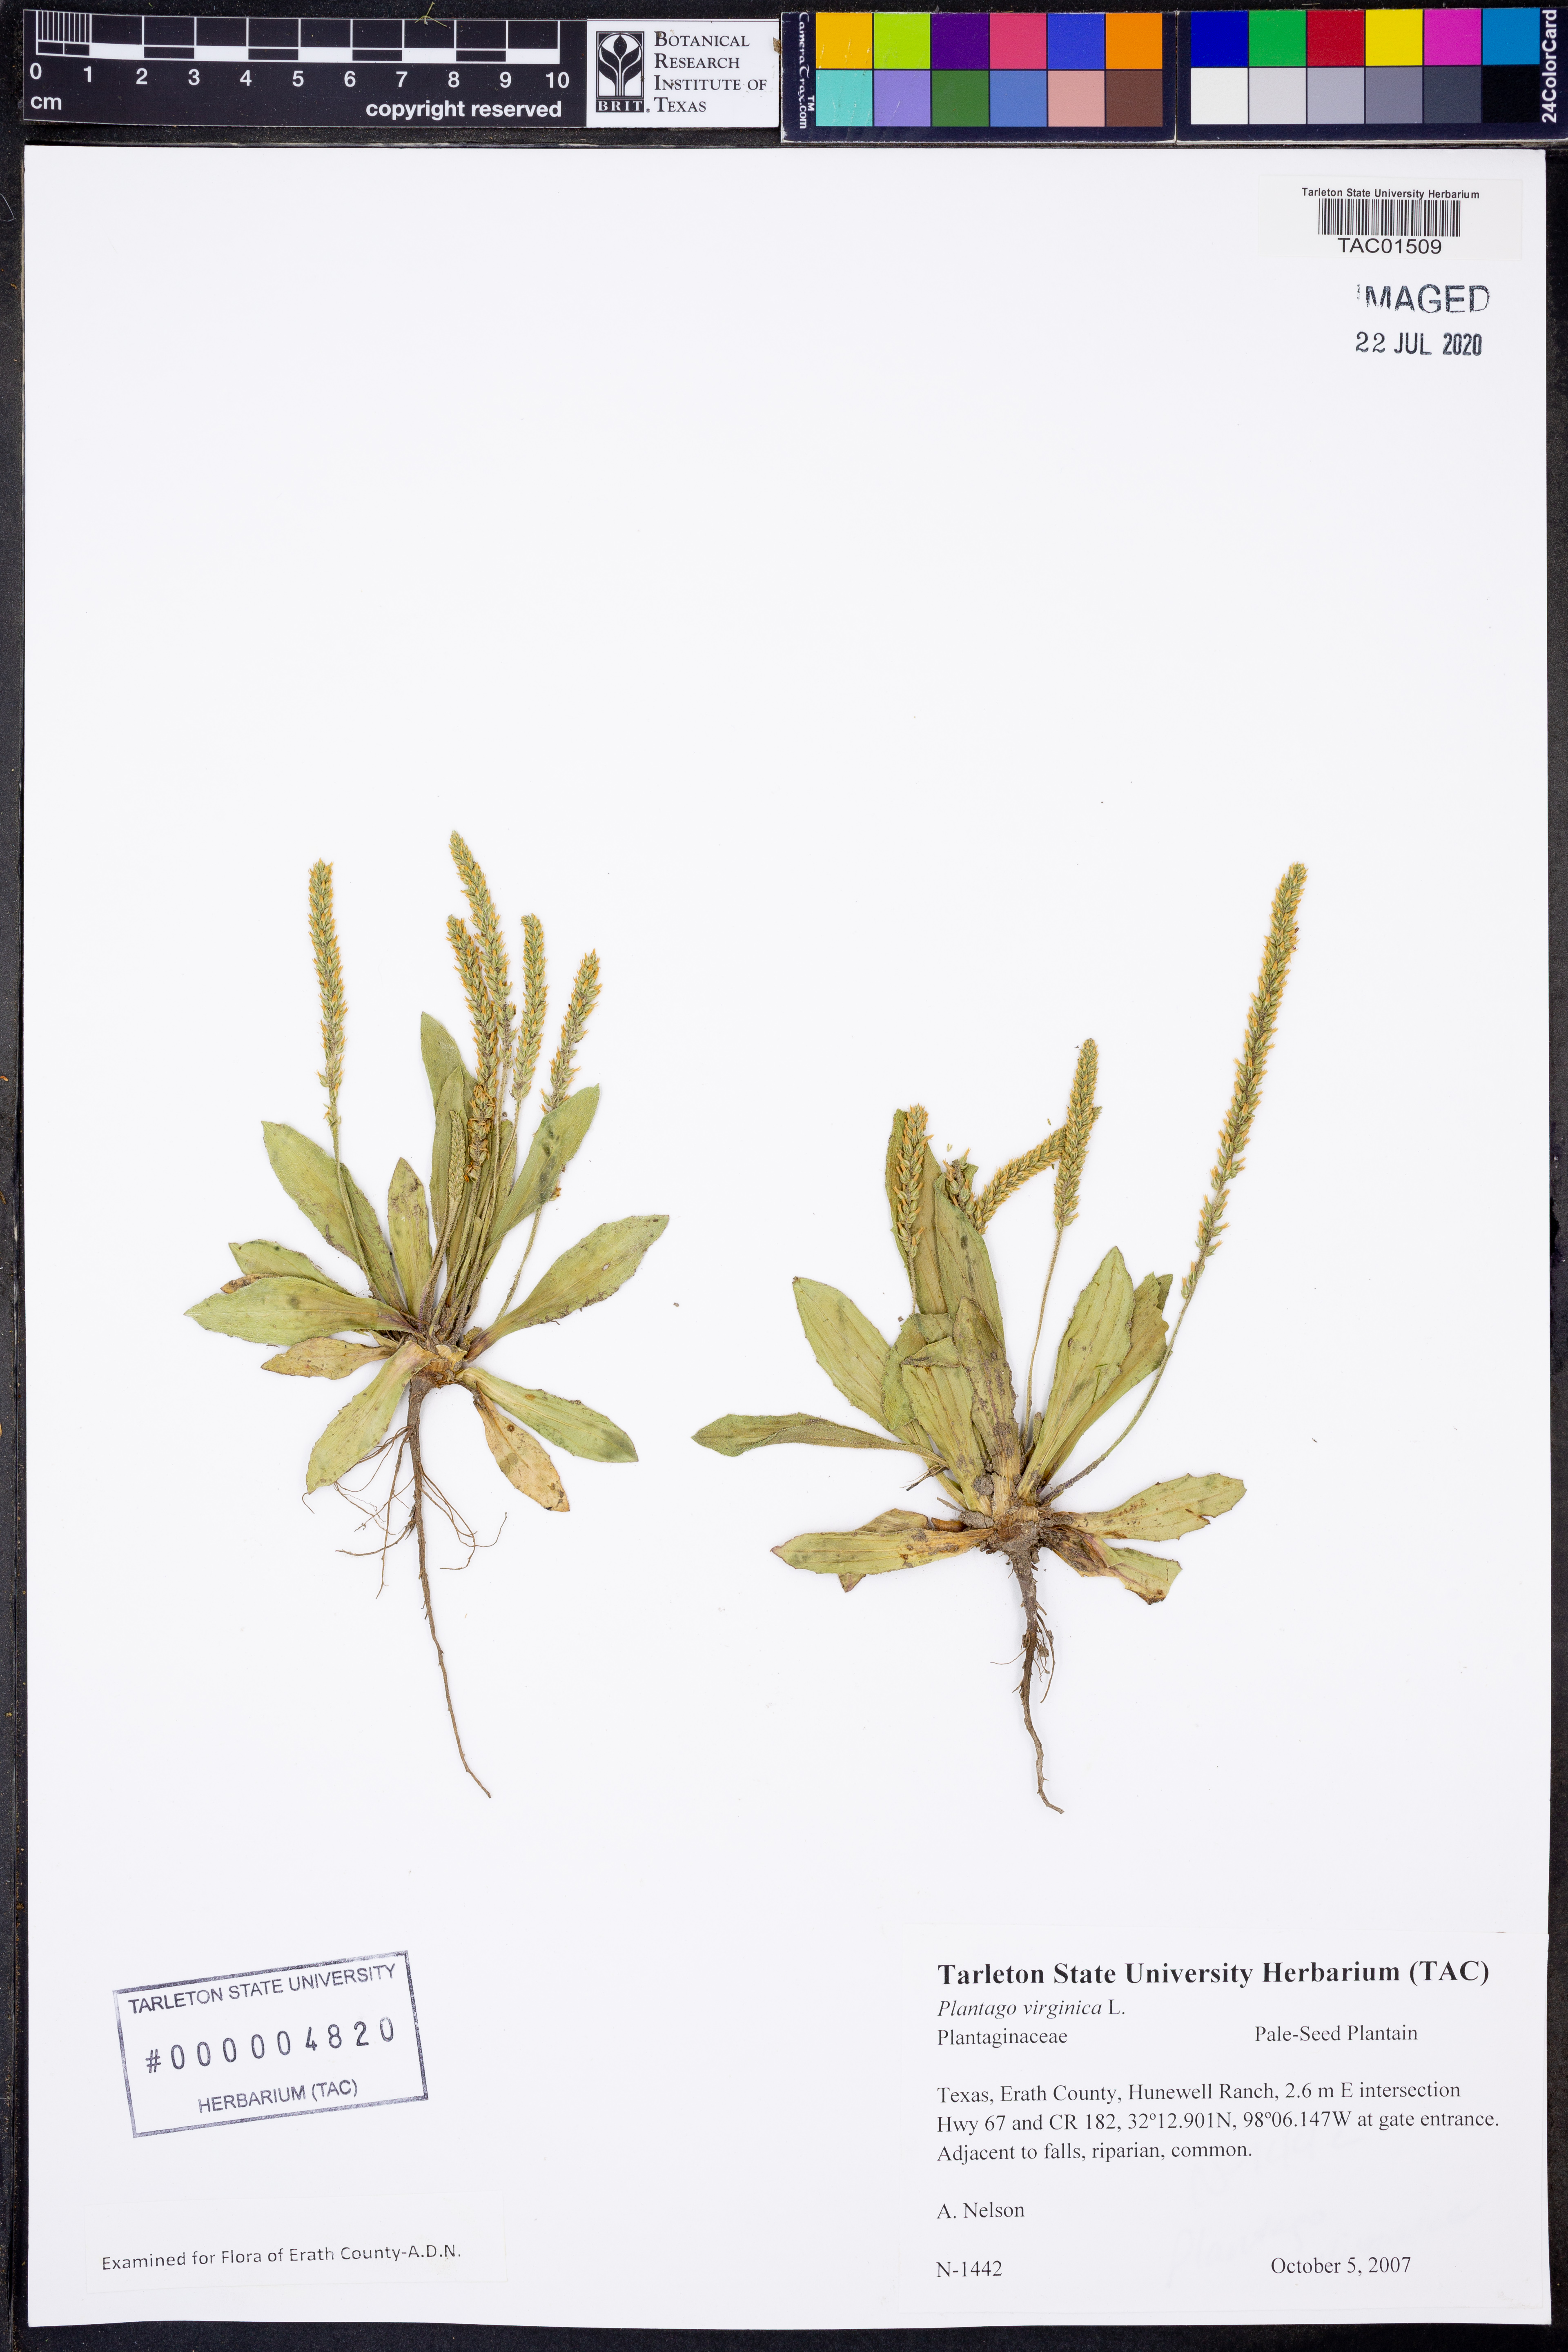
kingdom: Plantae
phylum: Tracheophyta
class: Magnoliopsida
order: Lamiales
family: Plantaginaceae
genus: Plantago
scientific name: Plantago virginica
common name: Hoary plantain
